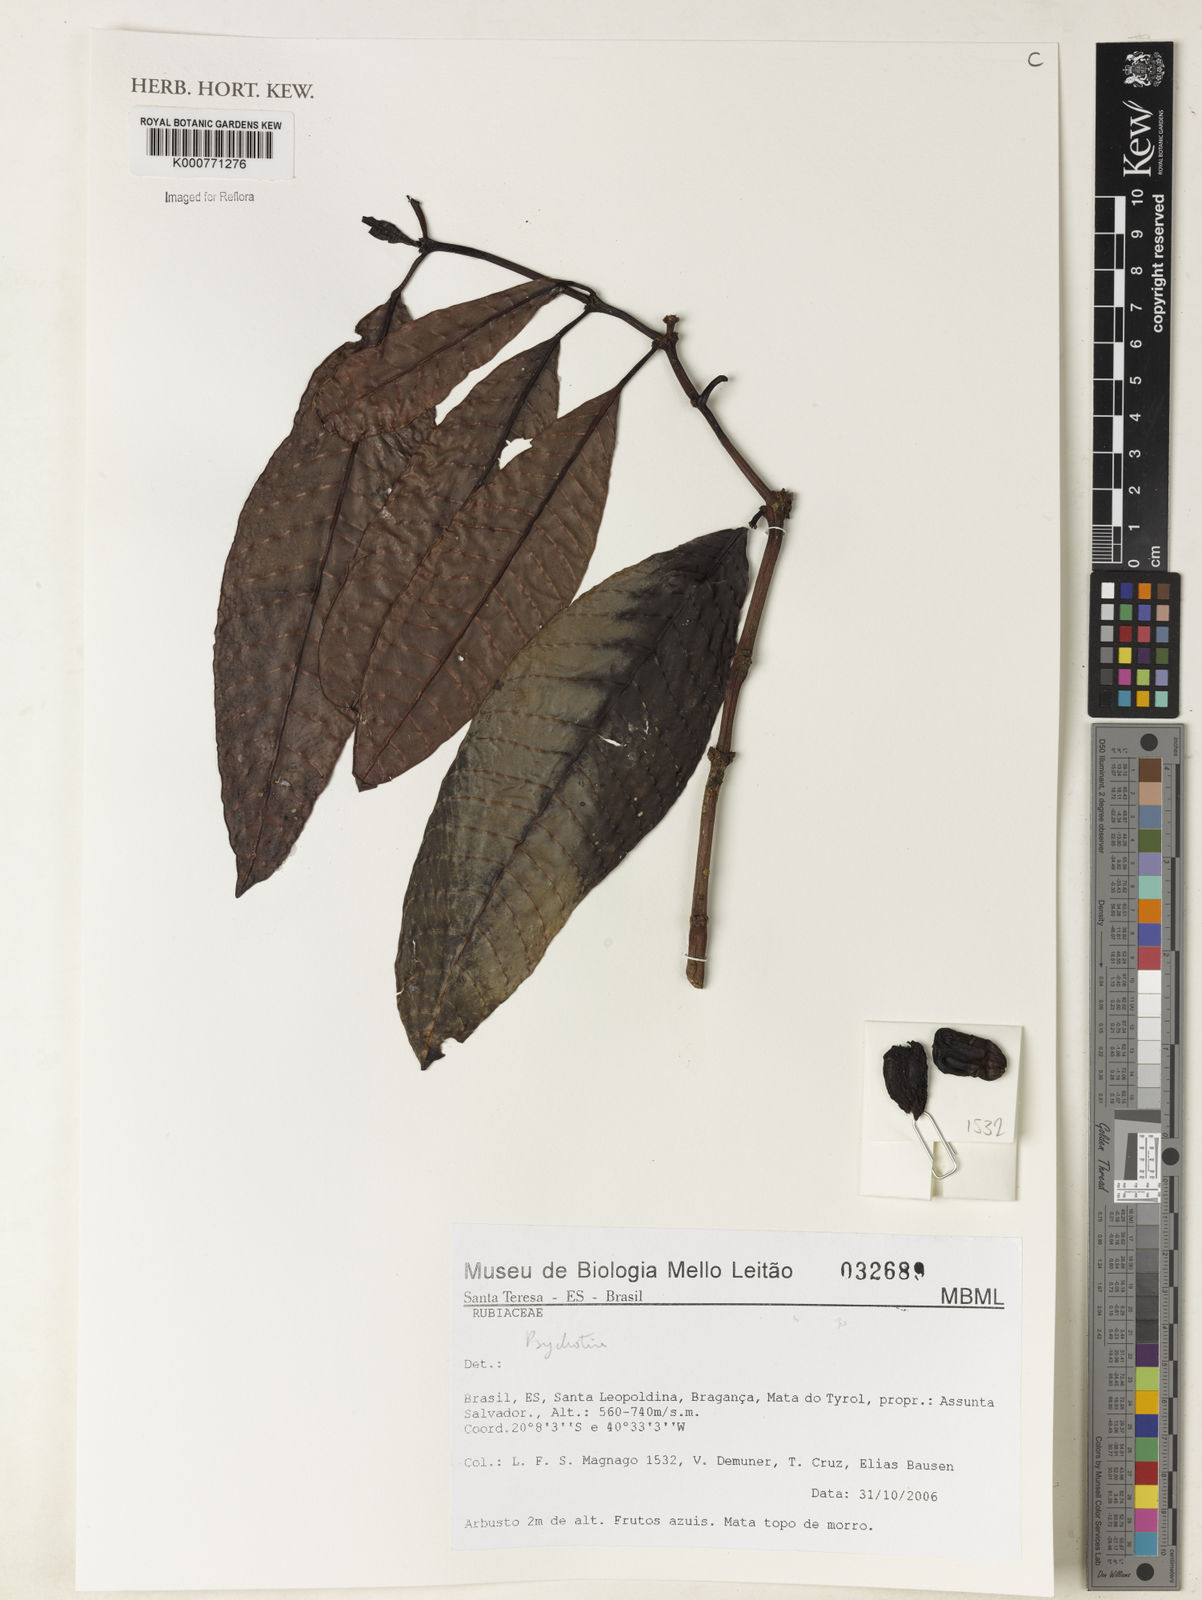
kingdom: Plantae
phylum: Tracheophyta
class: Magnoliopsida
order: Gentianales
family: Rubiaceae
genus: Psychotria
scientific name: Psychotria
